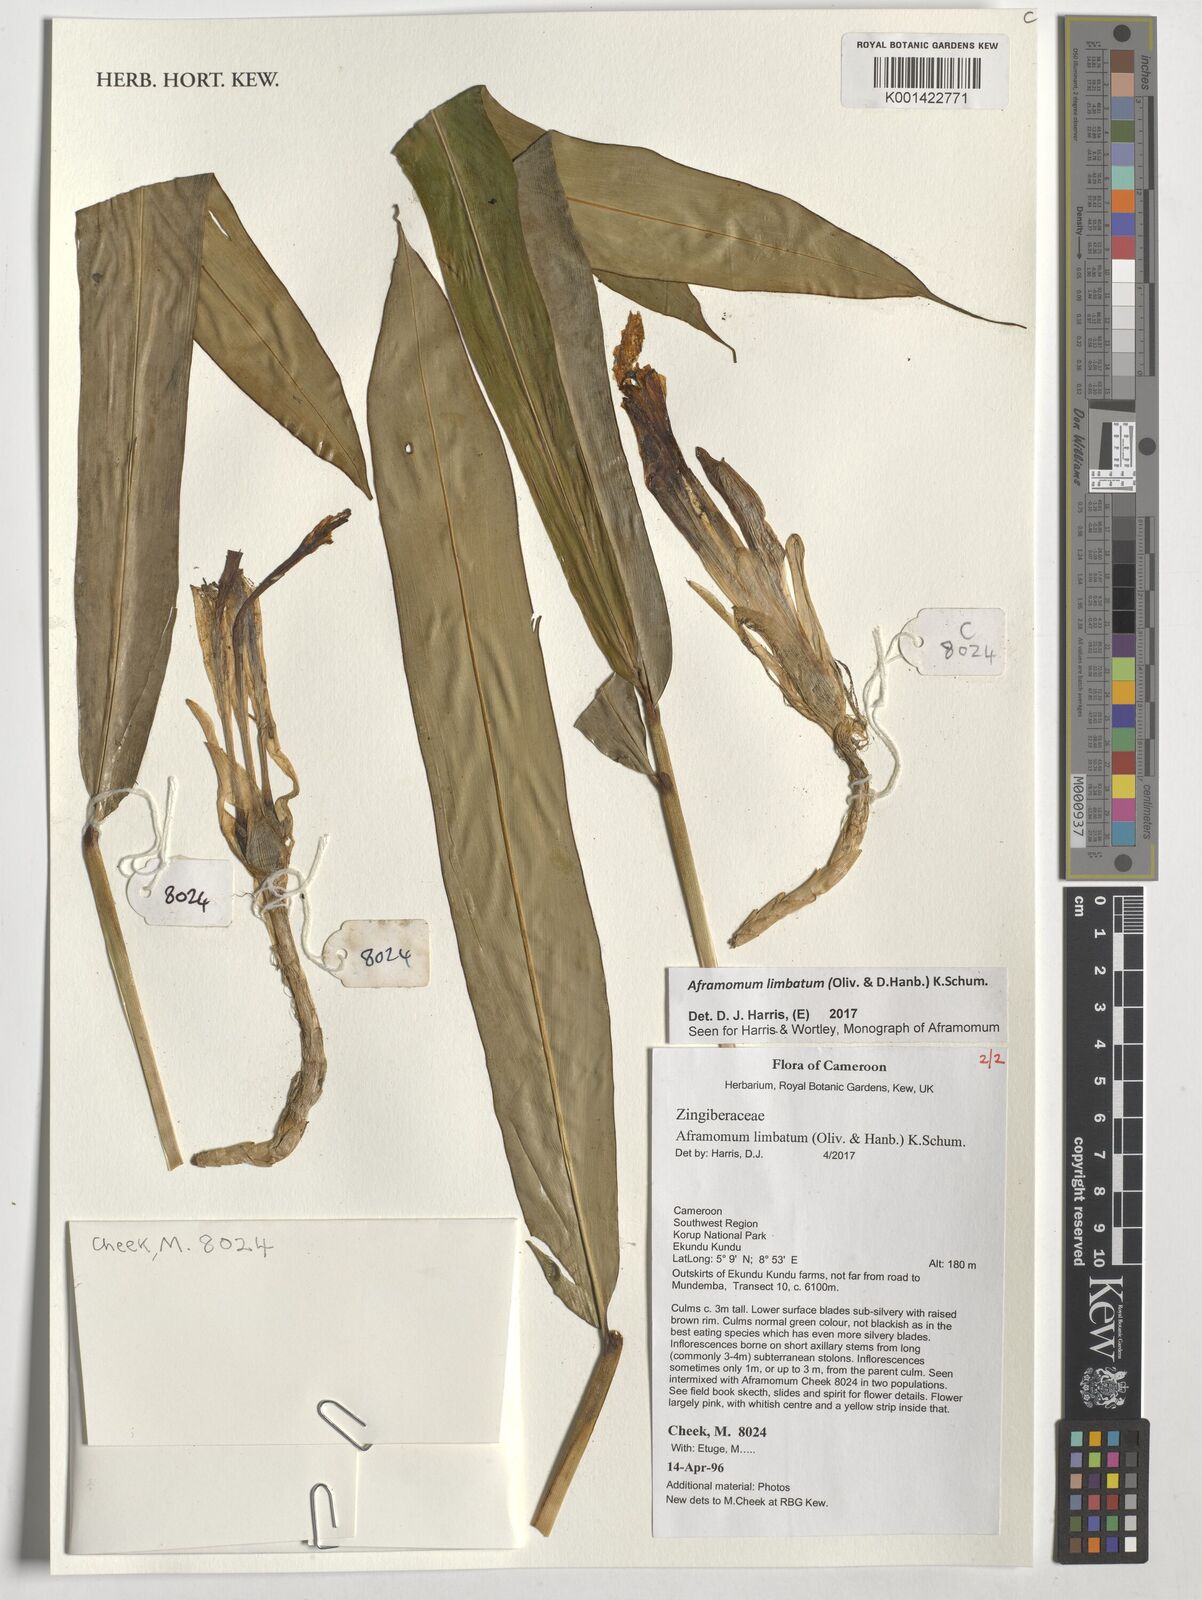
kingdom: Plantae
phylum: Tracheophyta
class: Liliopsida
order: Zingiberales
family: Zingiberaceae
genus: Aframomum
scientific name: Aframomum limbatum
